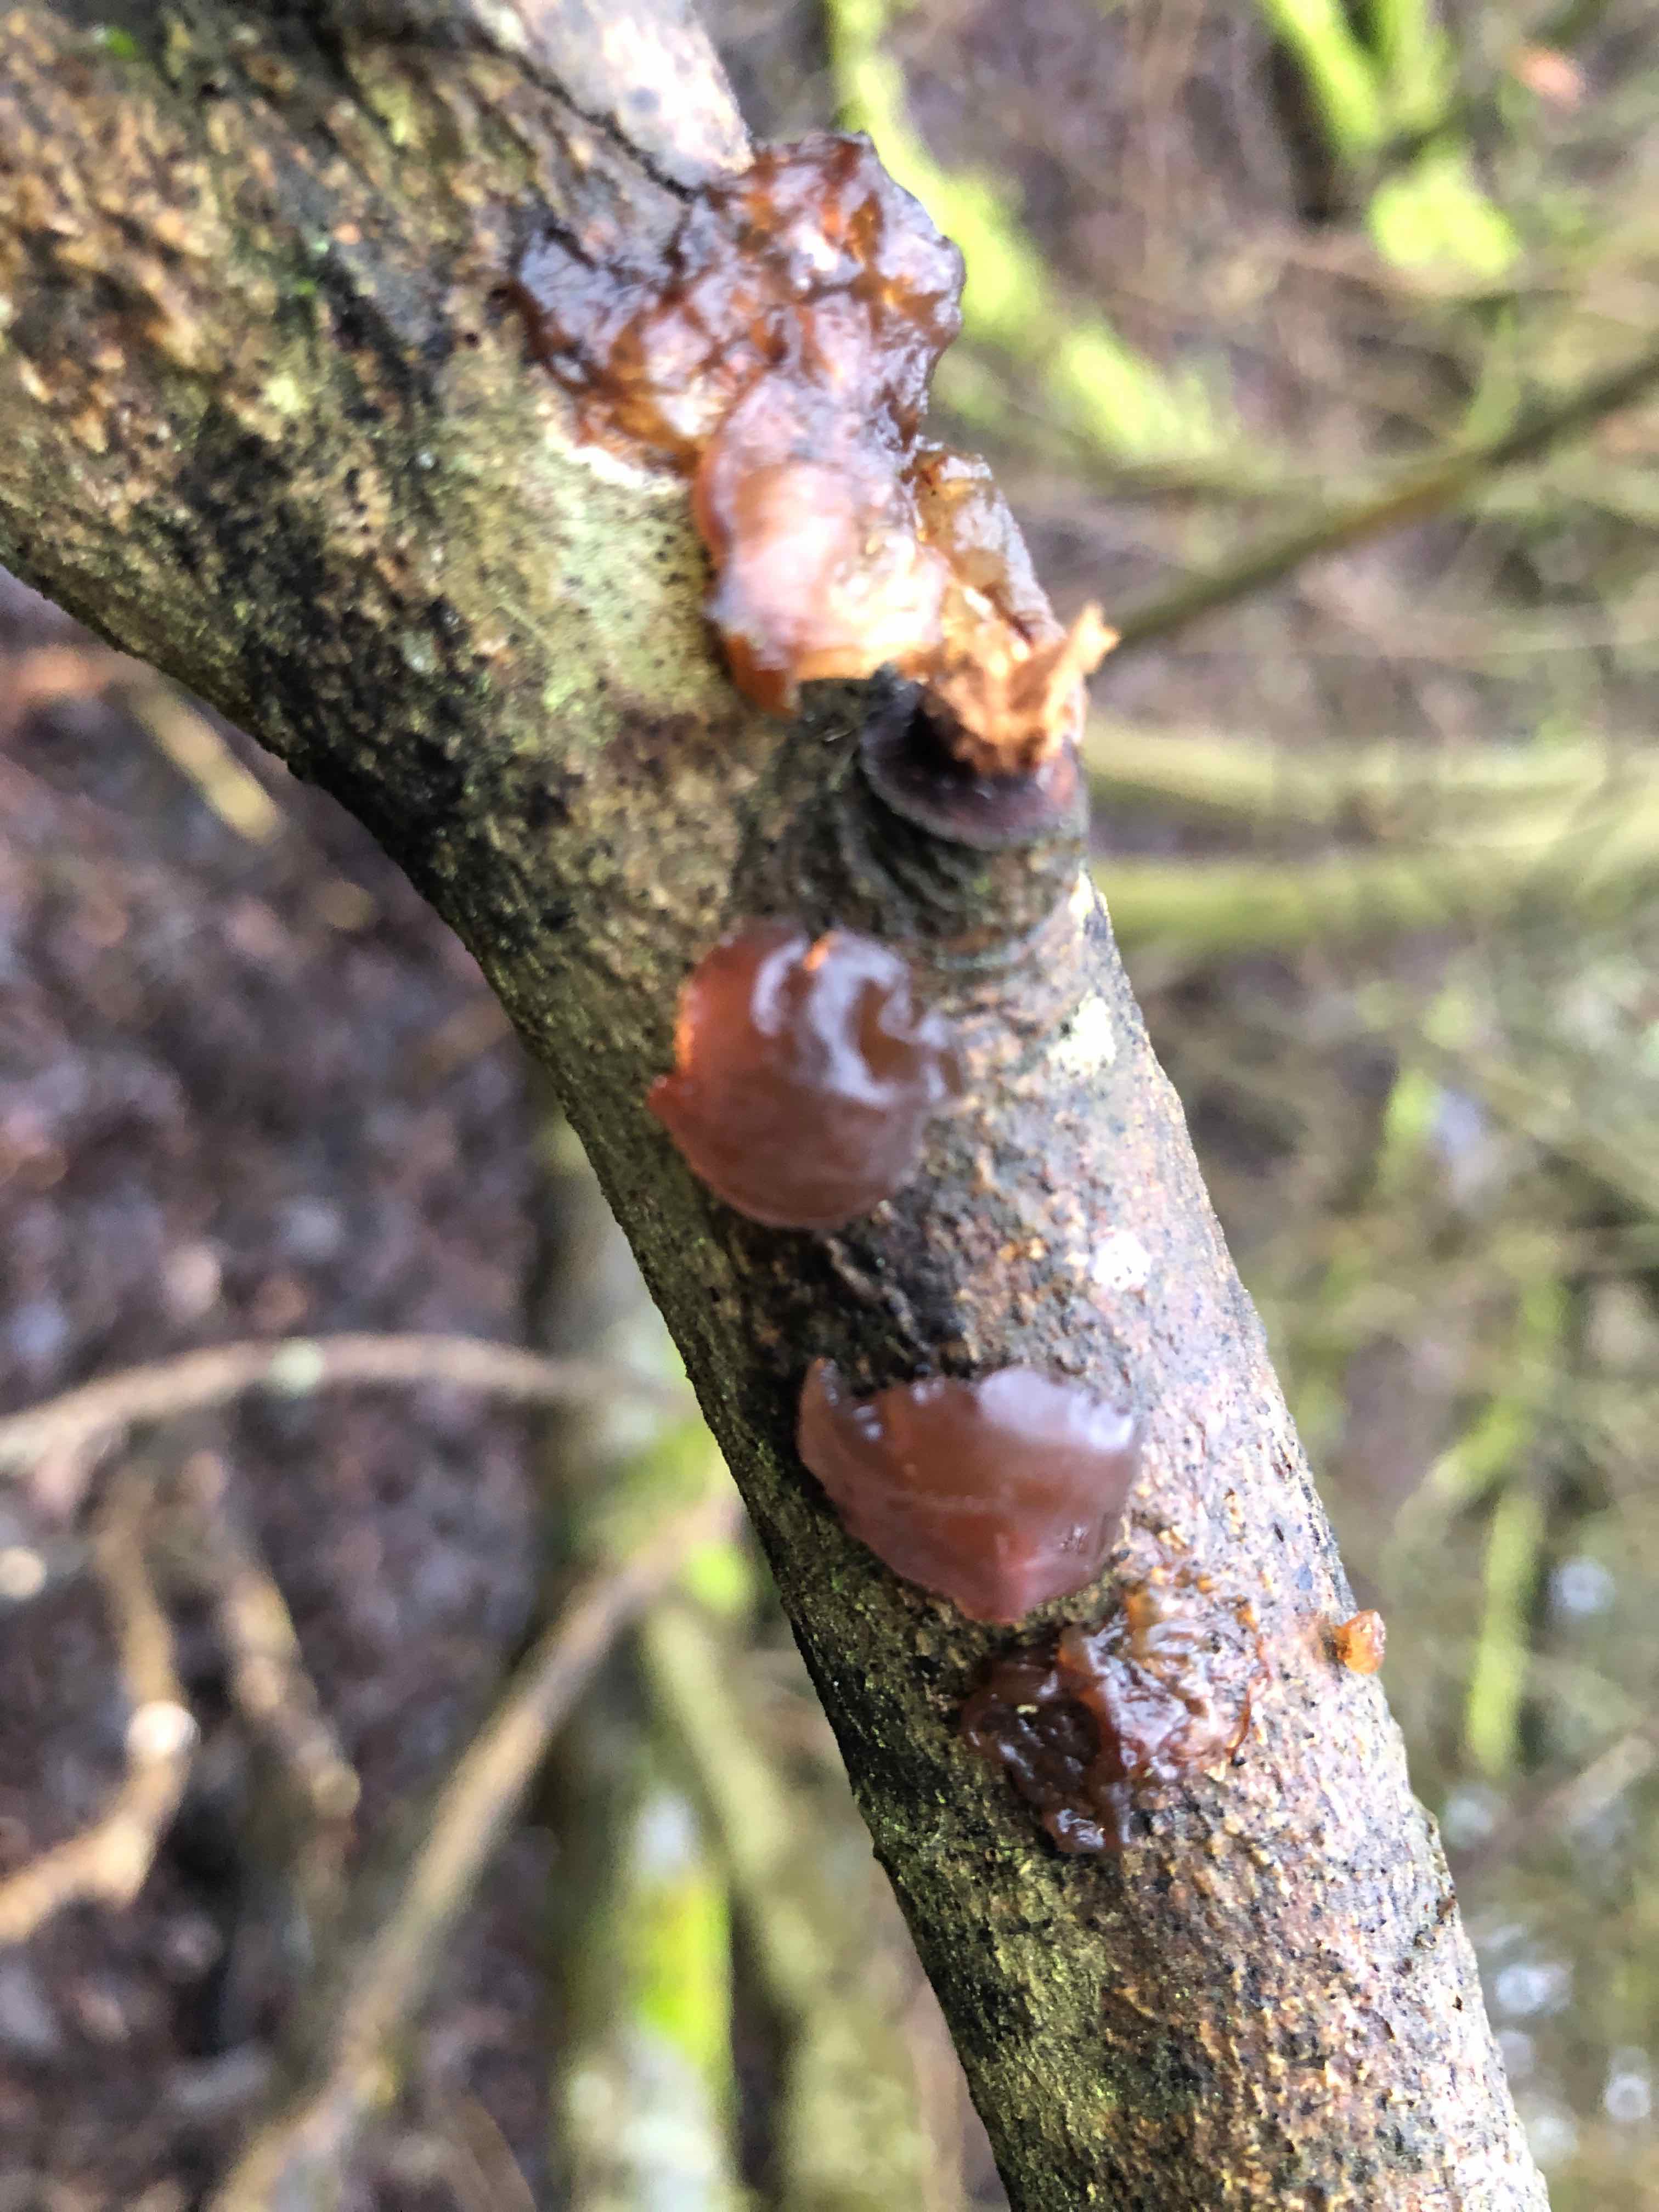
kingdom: Fungi
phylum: Basidiomycota
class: Agaricomycetes
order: Auriculariales
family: Auriculariaceae
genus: Exidia
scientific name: Exidia recisa
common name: pile-bævretop
